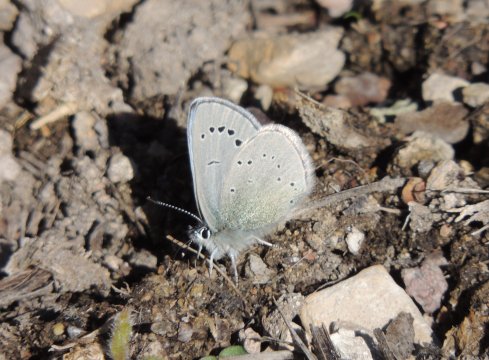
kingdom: Animalia
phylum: Arthropoda
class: Insecta
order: Lepidoptera
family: Lycaenidae
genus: Glaucopsyche
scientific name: Glaucopsyche lygdamus
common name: Silvery Blue
